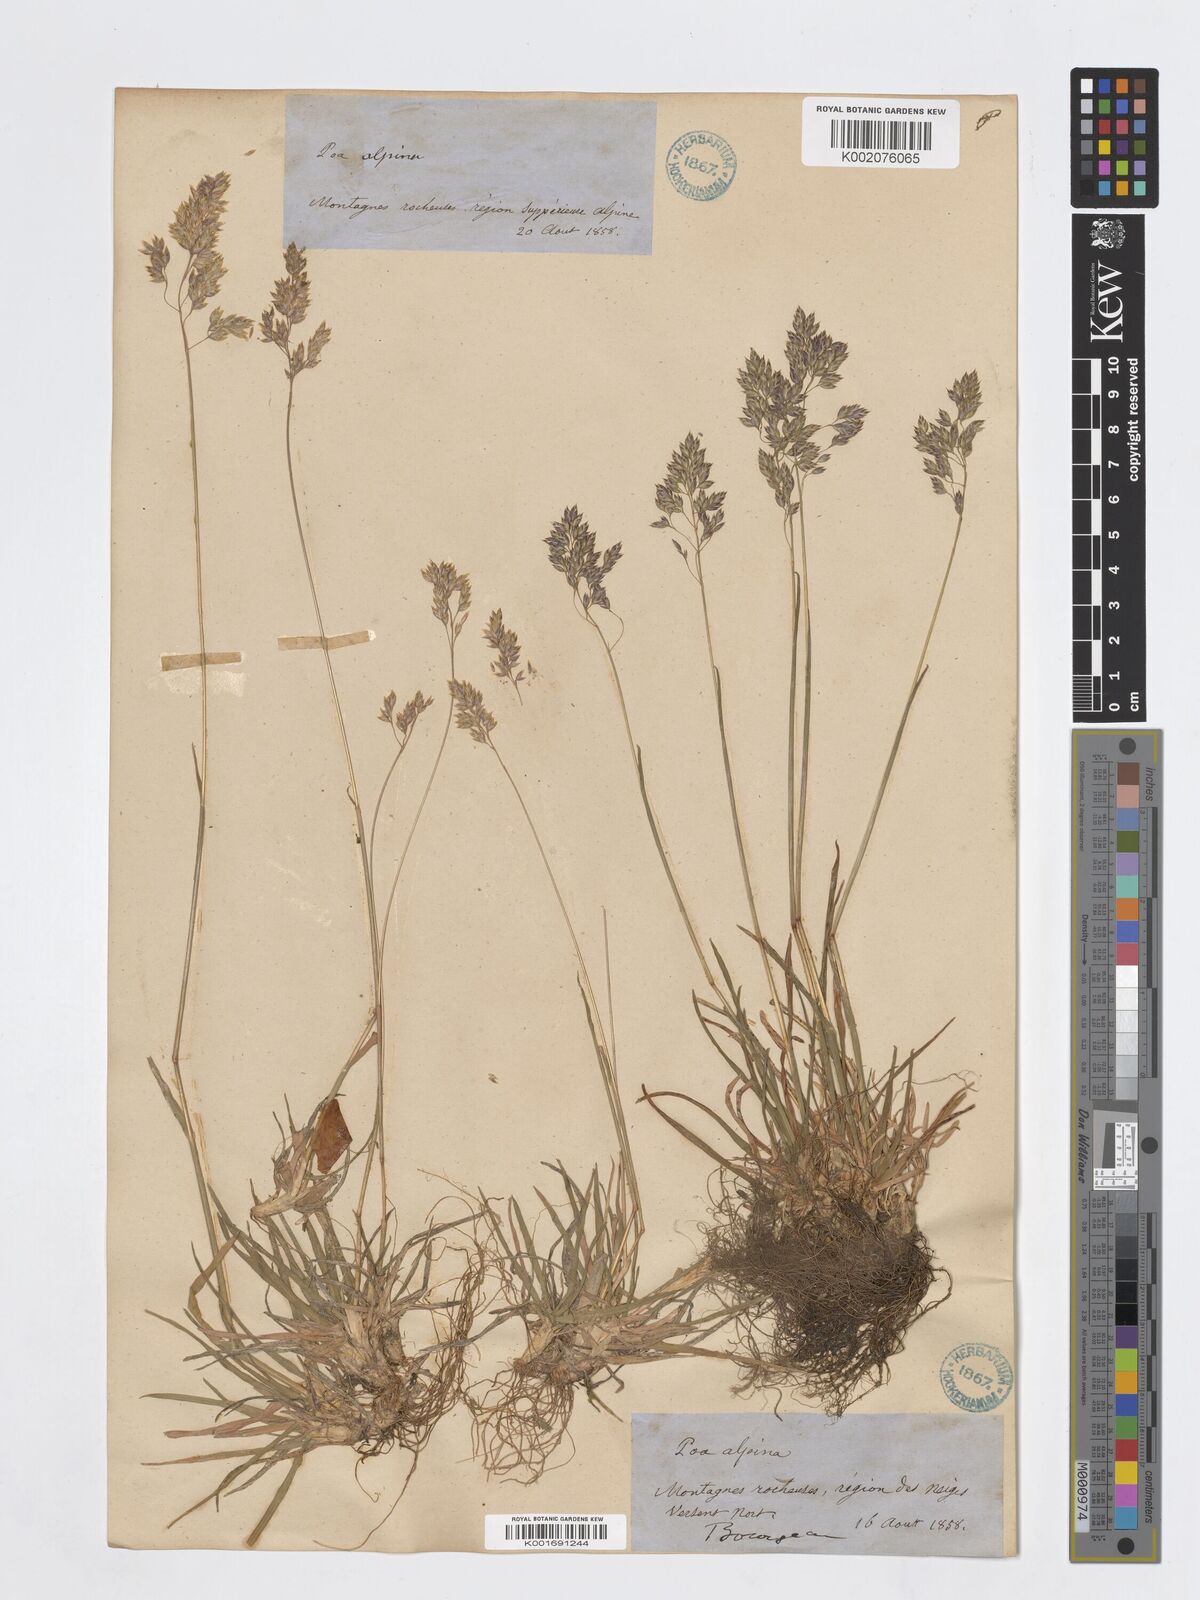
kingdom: Plantae
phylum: Tracheophyta
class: Liliopsida
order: Poales
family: Poaceae
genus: Poa
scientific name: Poa alpina
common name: Alpine bluegrass
